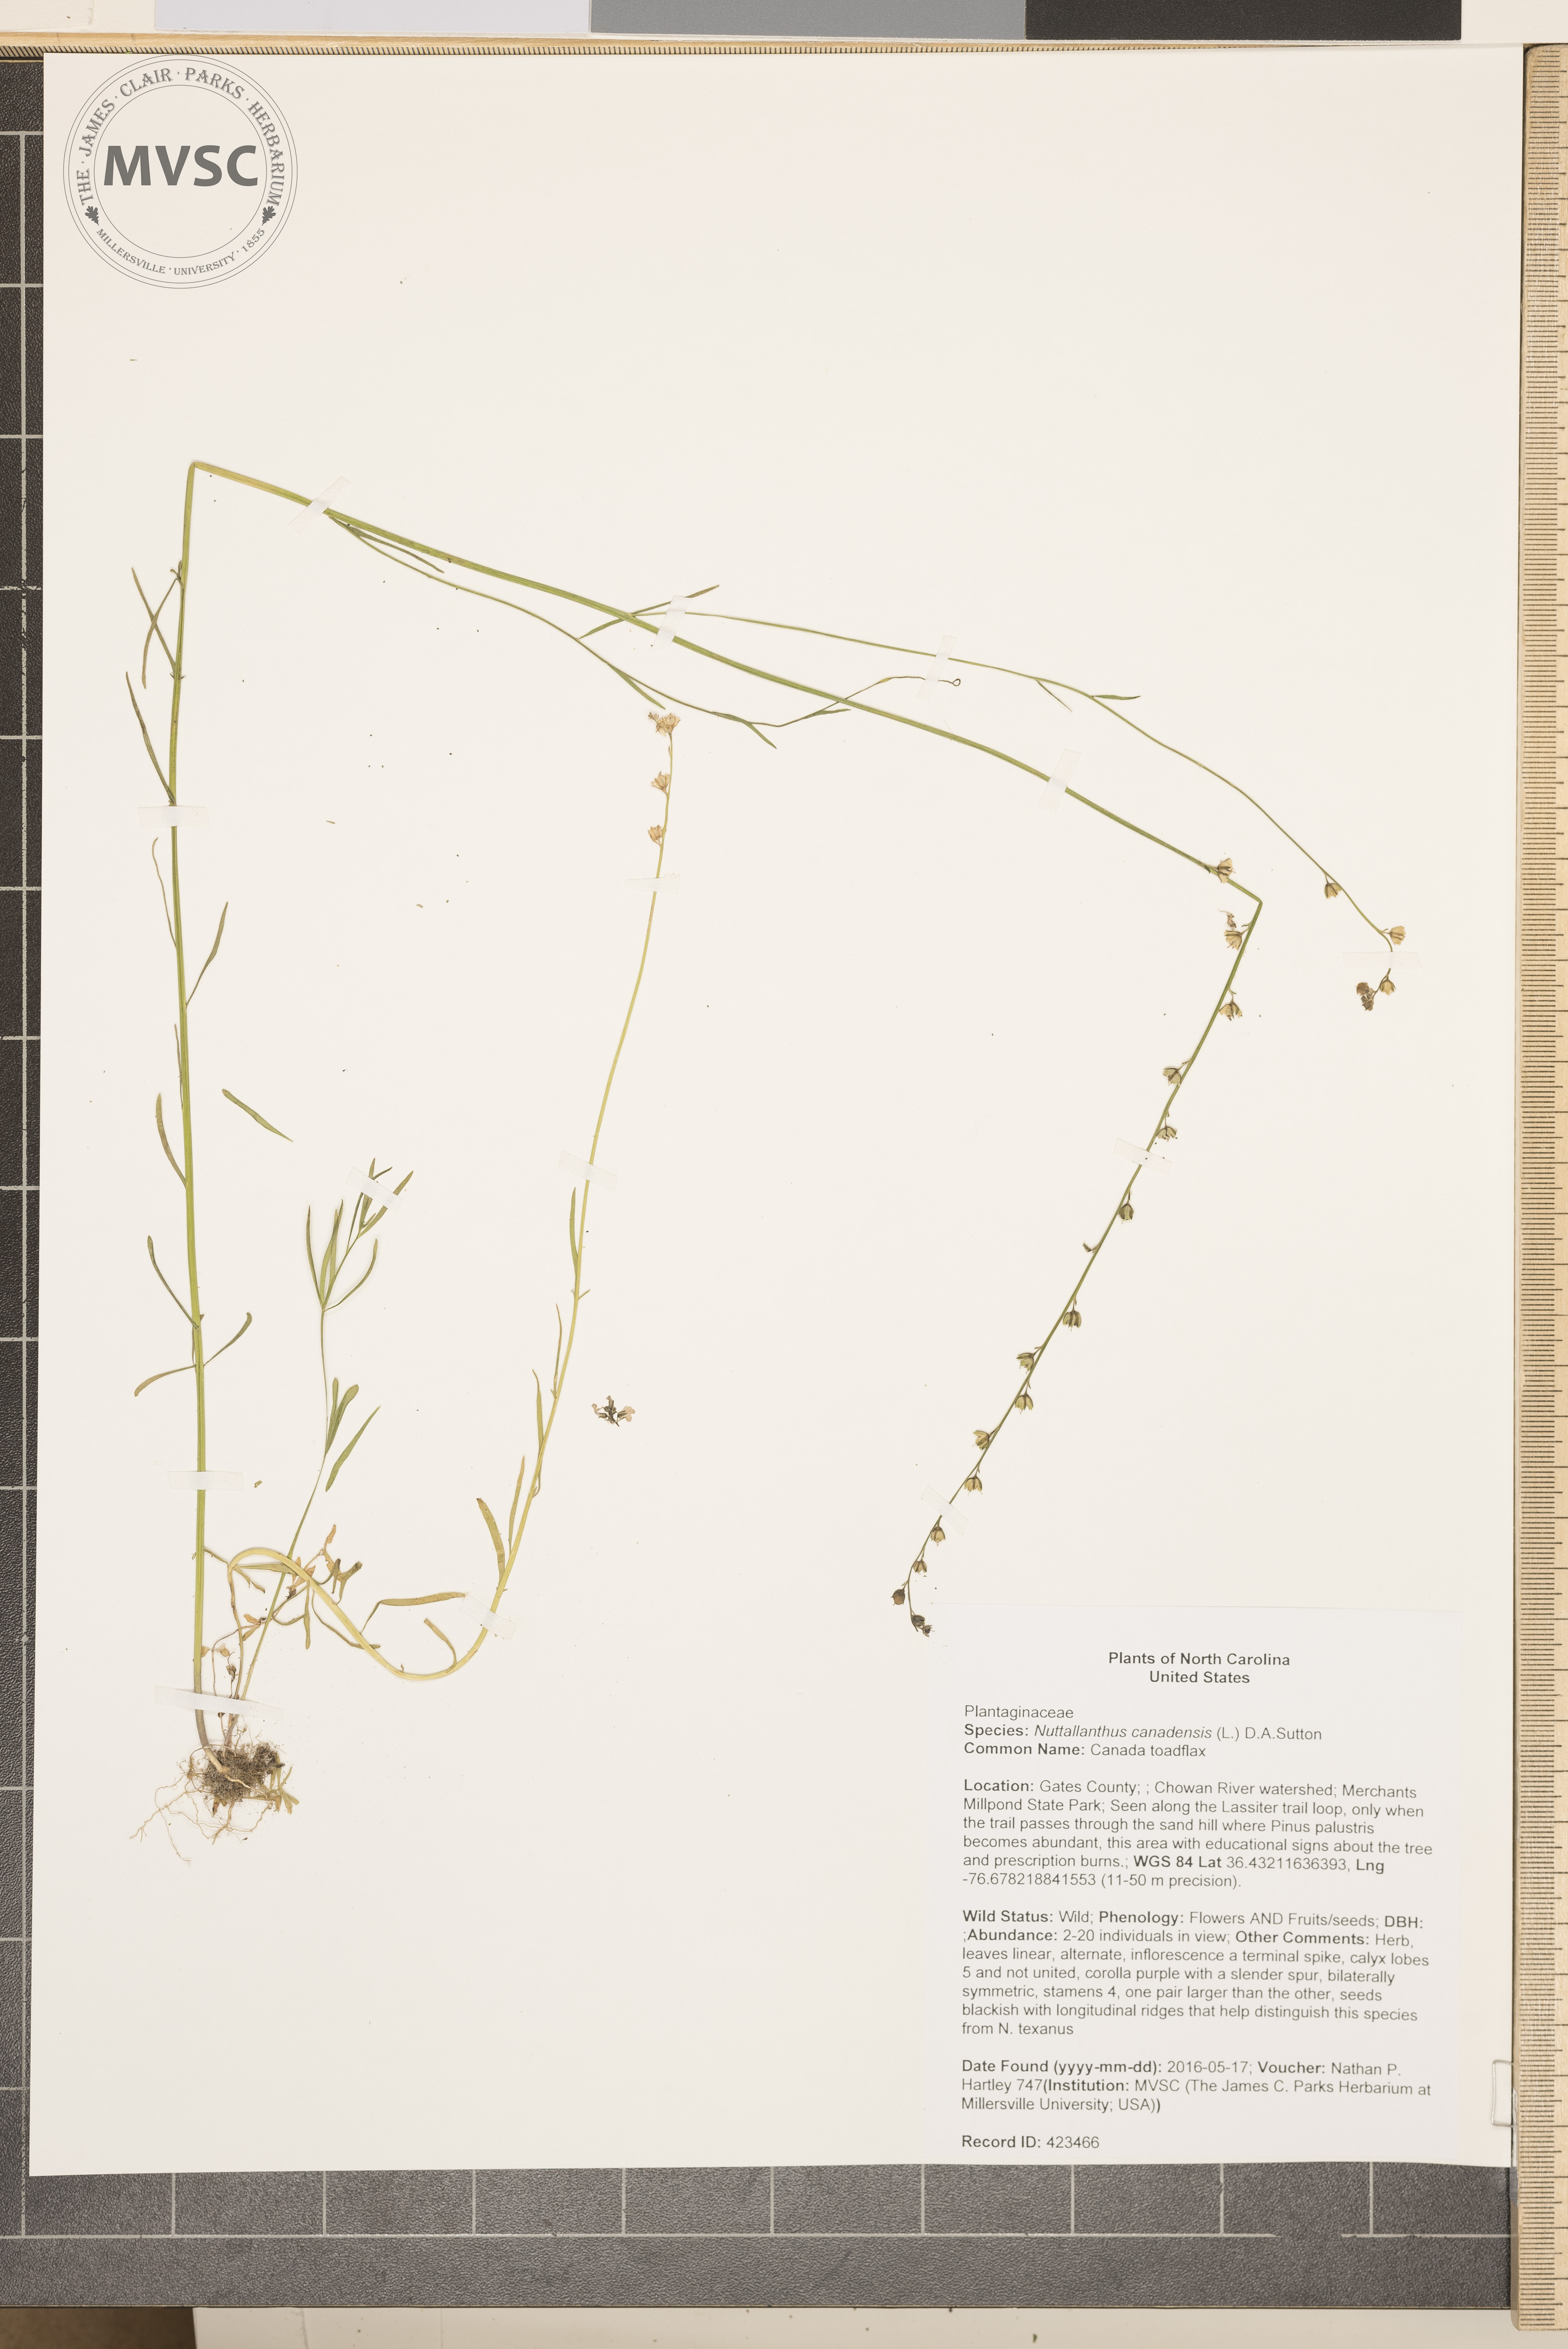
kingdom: Plantae
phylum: Tracheophyta
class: Magnoliopsida
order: Lamiales
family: Plantaginaceae
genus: Nuttallanthus
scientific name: Nuttallanthus canadensis
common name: Canada toadflax
